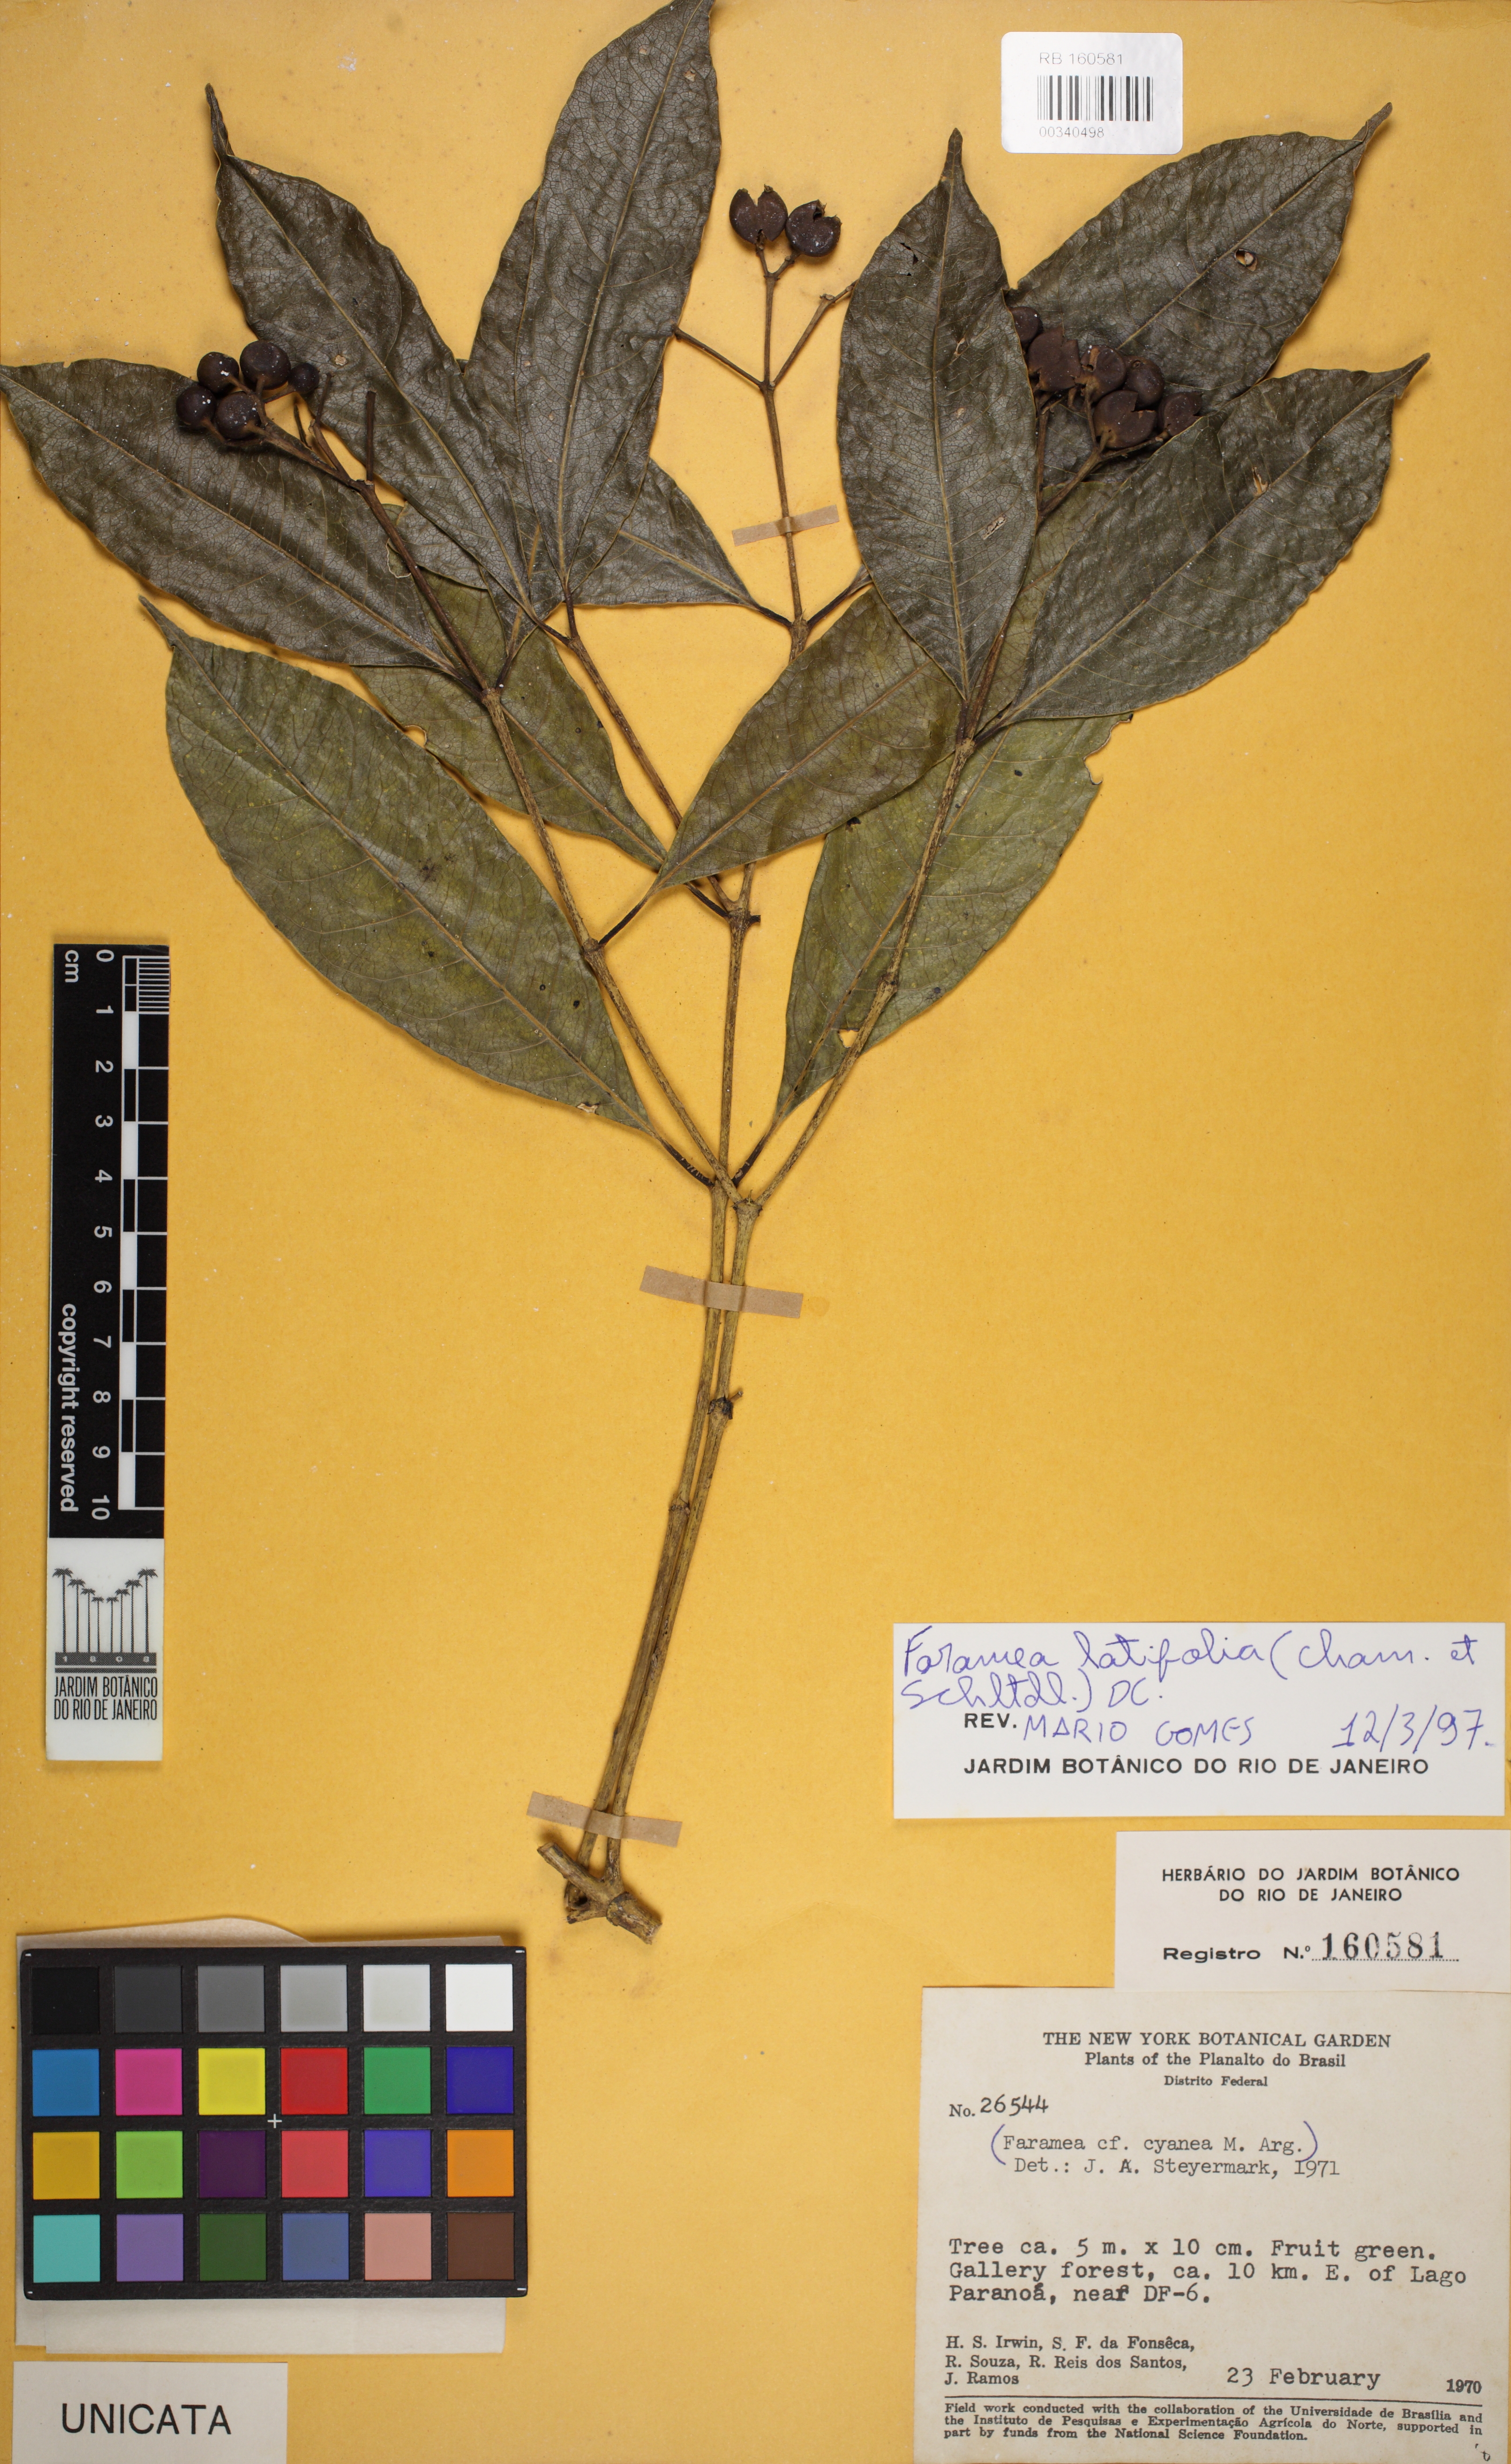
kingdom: Plantae
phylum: Tracheophyta
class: Magnoliopsida
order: Gentianales
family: Rubiaceae
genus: Faramea
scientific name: Faramea latifolia
